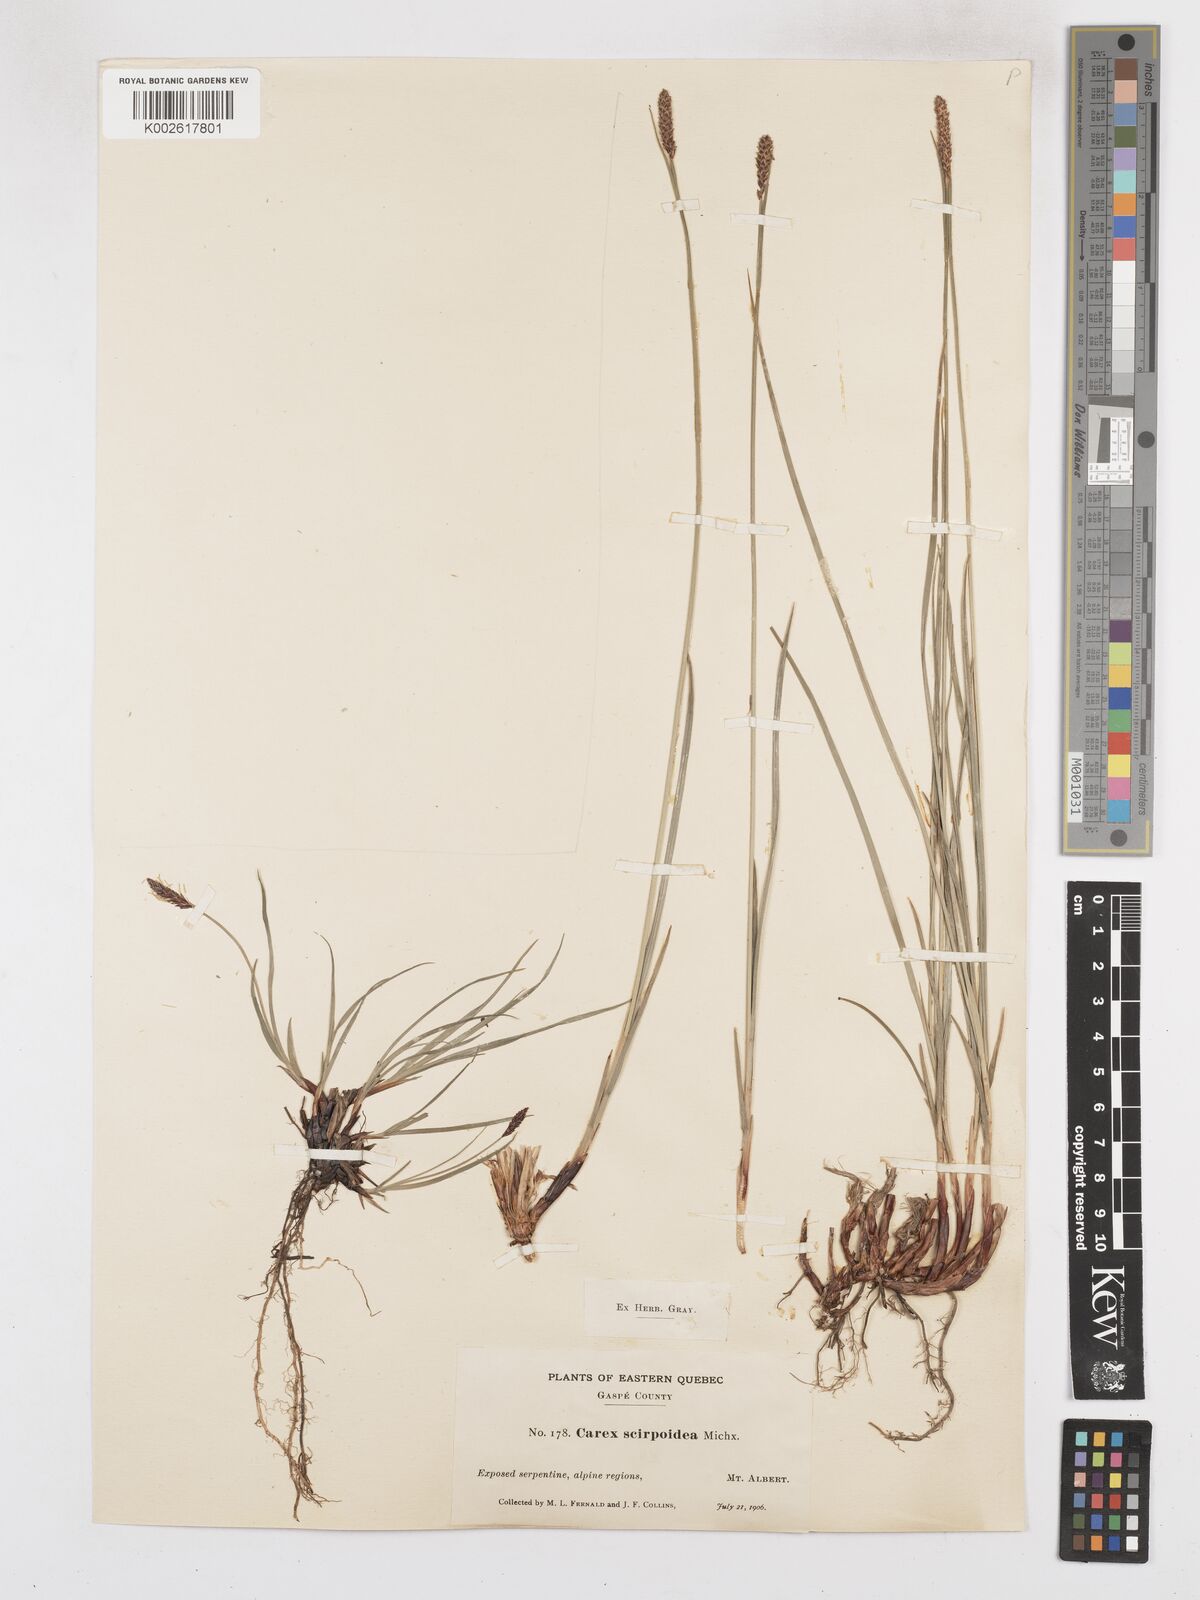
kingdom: Plantae
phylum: Tracheophyta
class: Liliopsida
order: Poales
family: Cyperaceae
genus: Carex
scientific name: Carex scirpoidea
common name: Canada single-spike sedge
